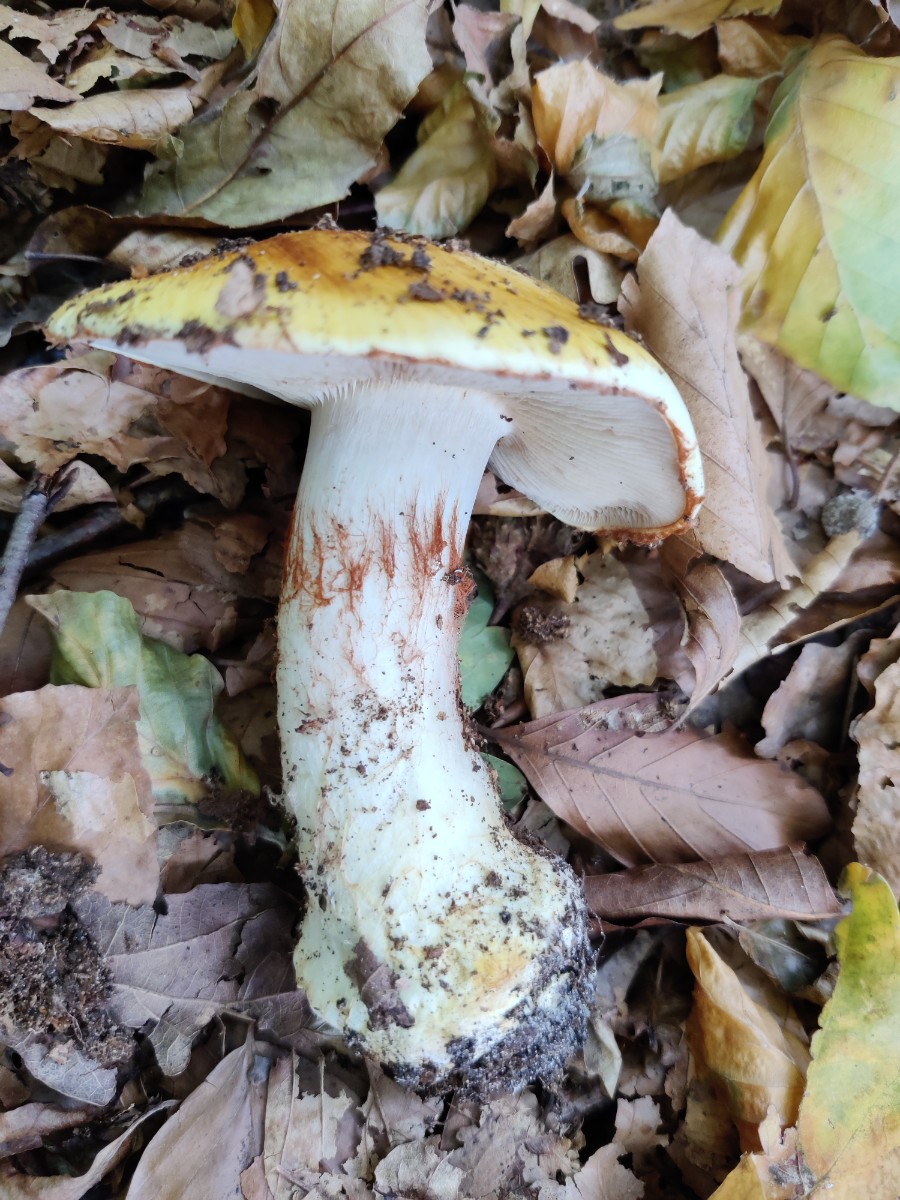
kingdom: Fungi
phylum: Basidiomycota
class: Agaricomycetes
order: Agaricales
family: Cortinariaceae
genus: Phlegmacium
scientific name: Phlegmacium caesiocortinatum
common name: rundsporet slørhat
